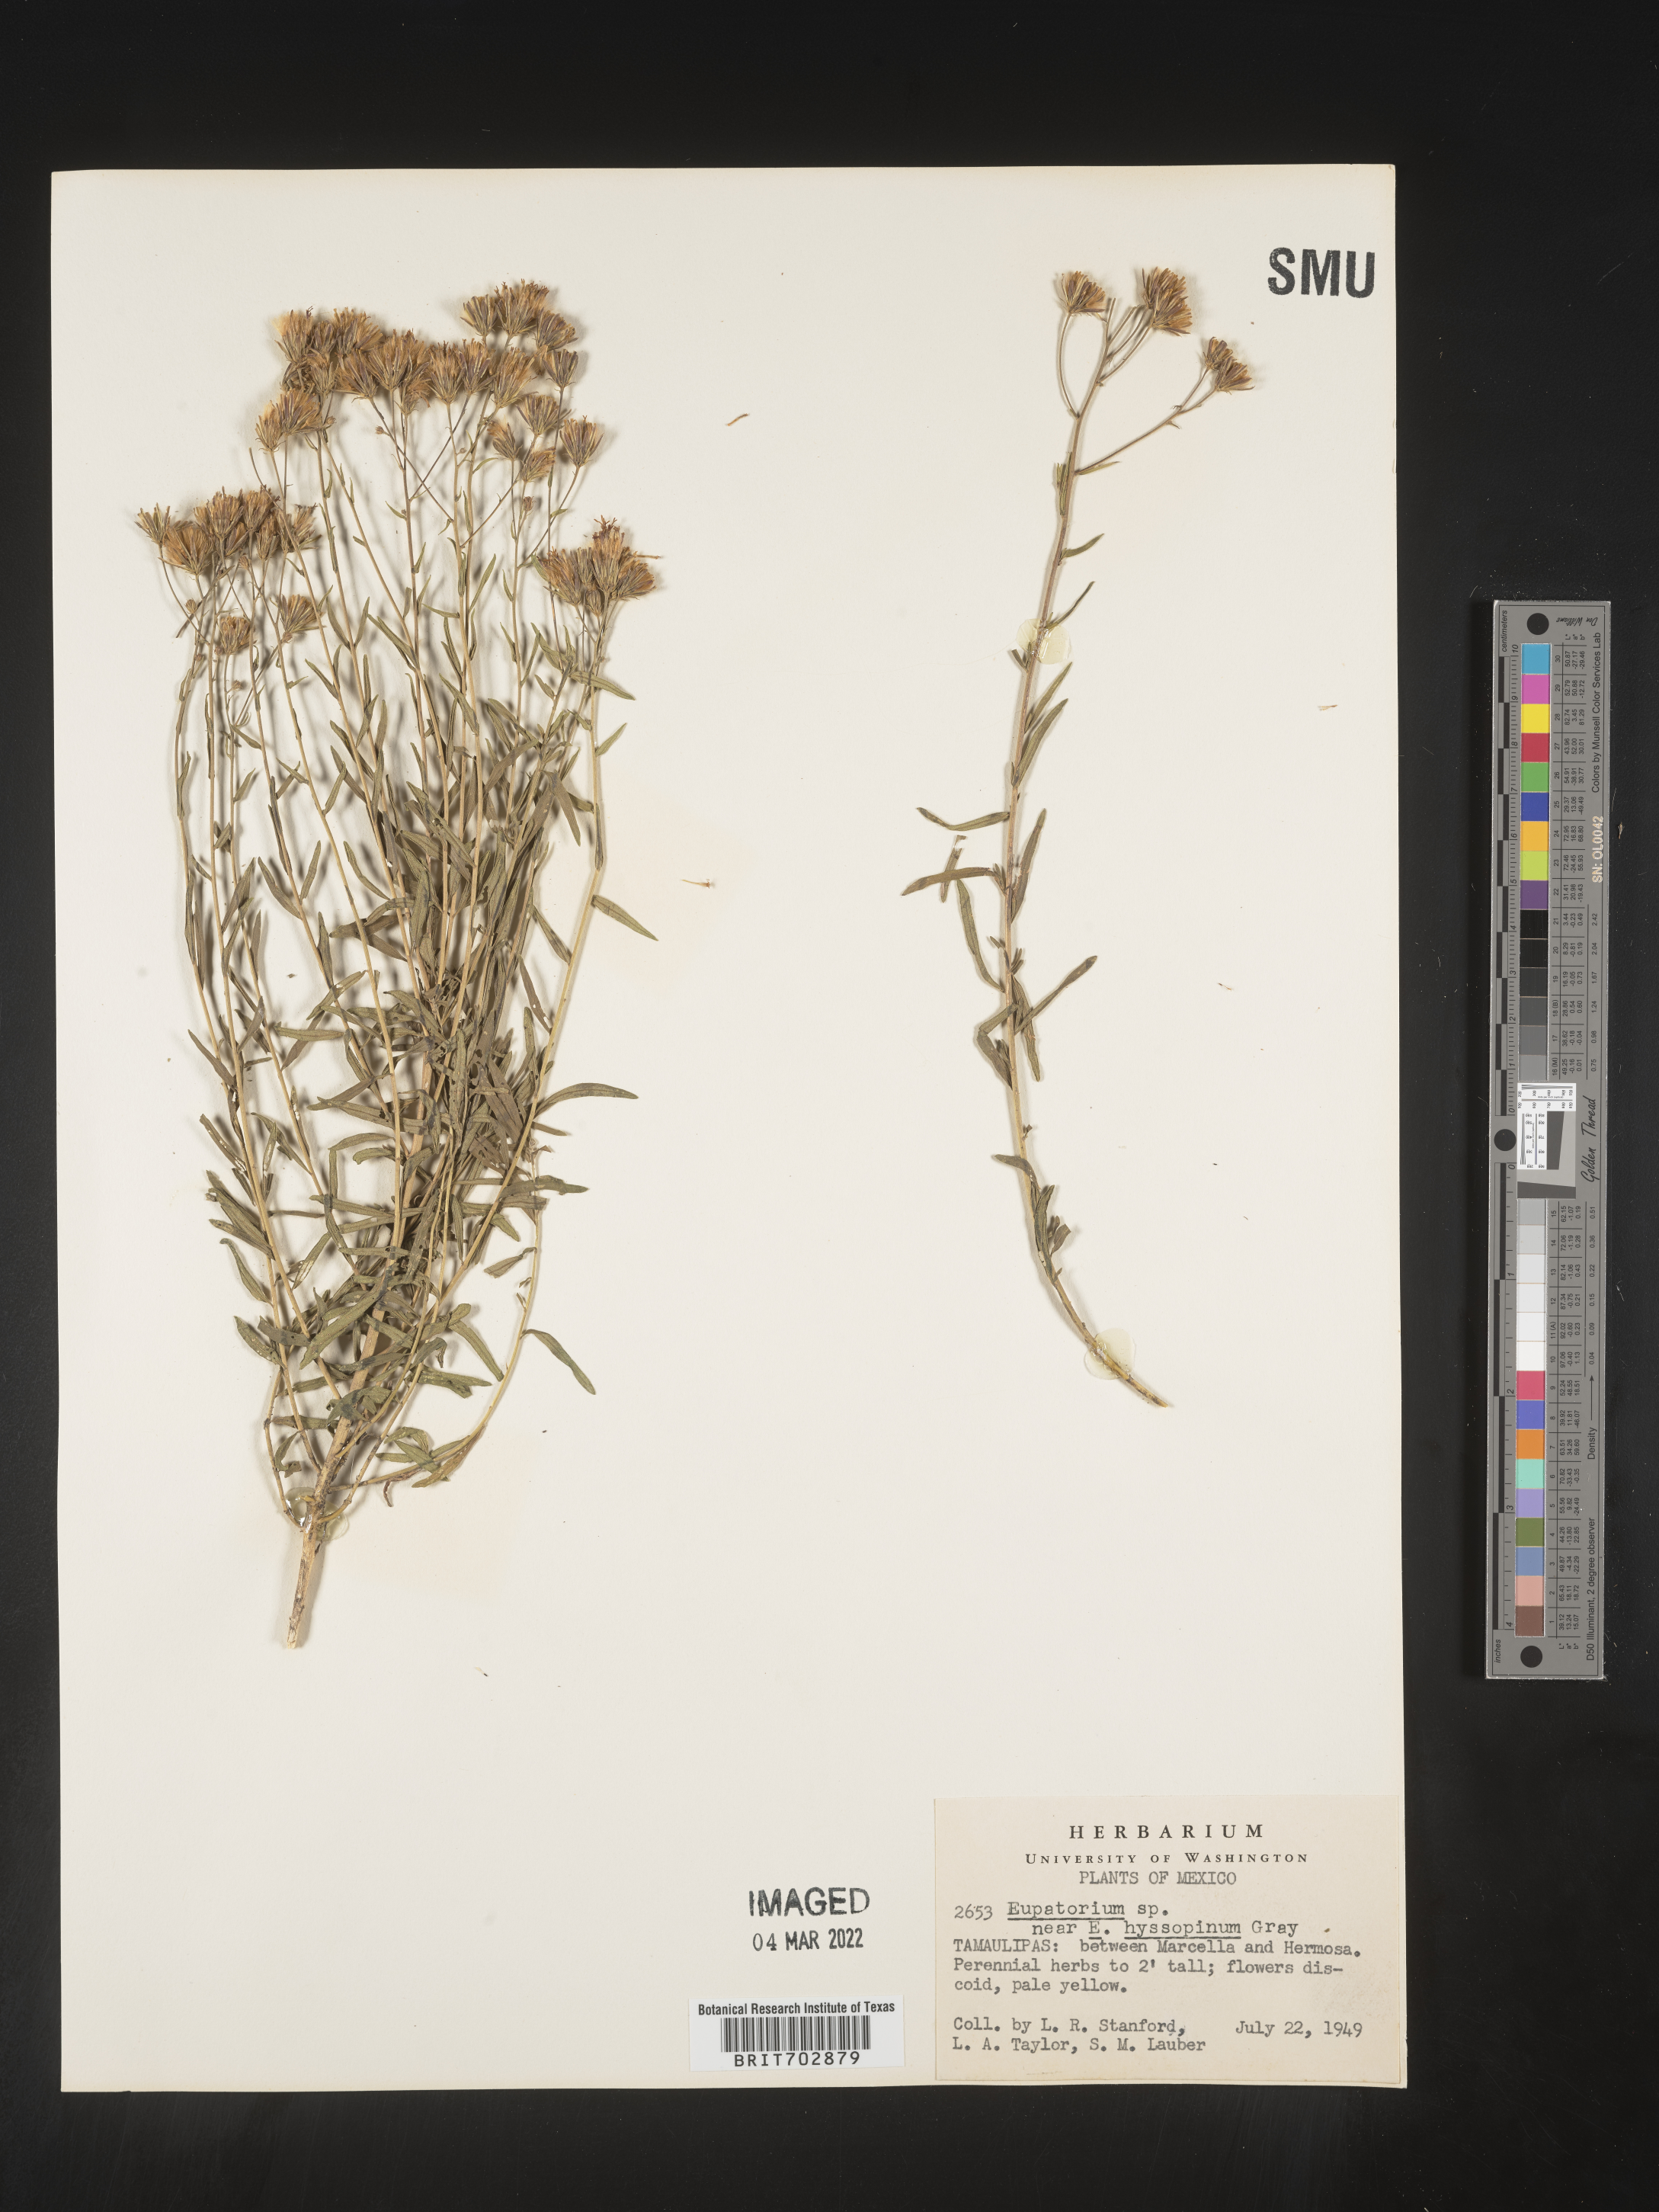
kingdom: Plantae
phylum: Tracheophyta
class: Magnoliopsida
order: Asterales
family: Asteraceae
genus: Eupatorium
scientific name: Eupatorium
